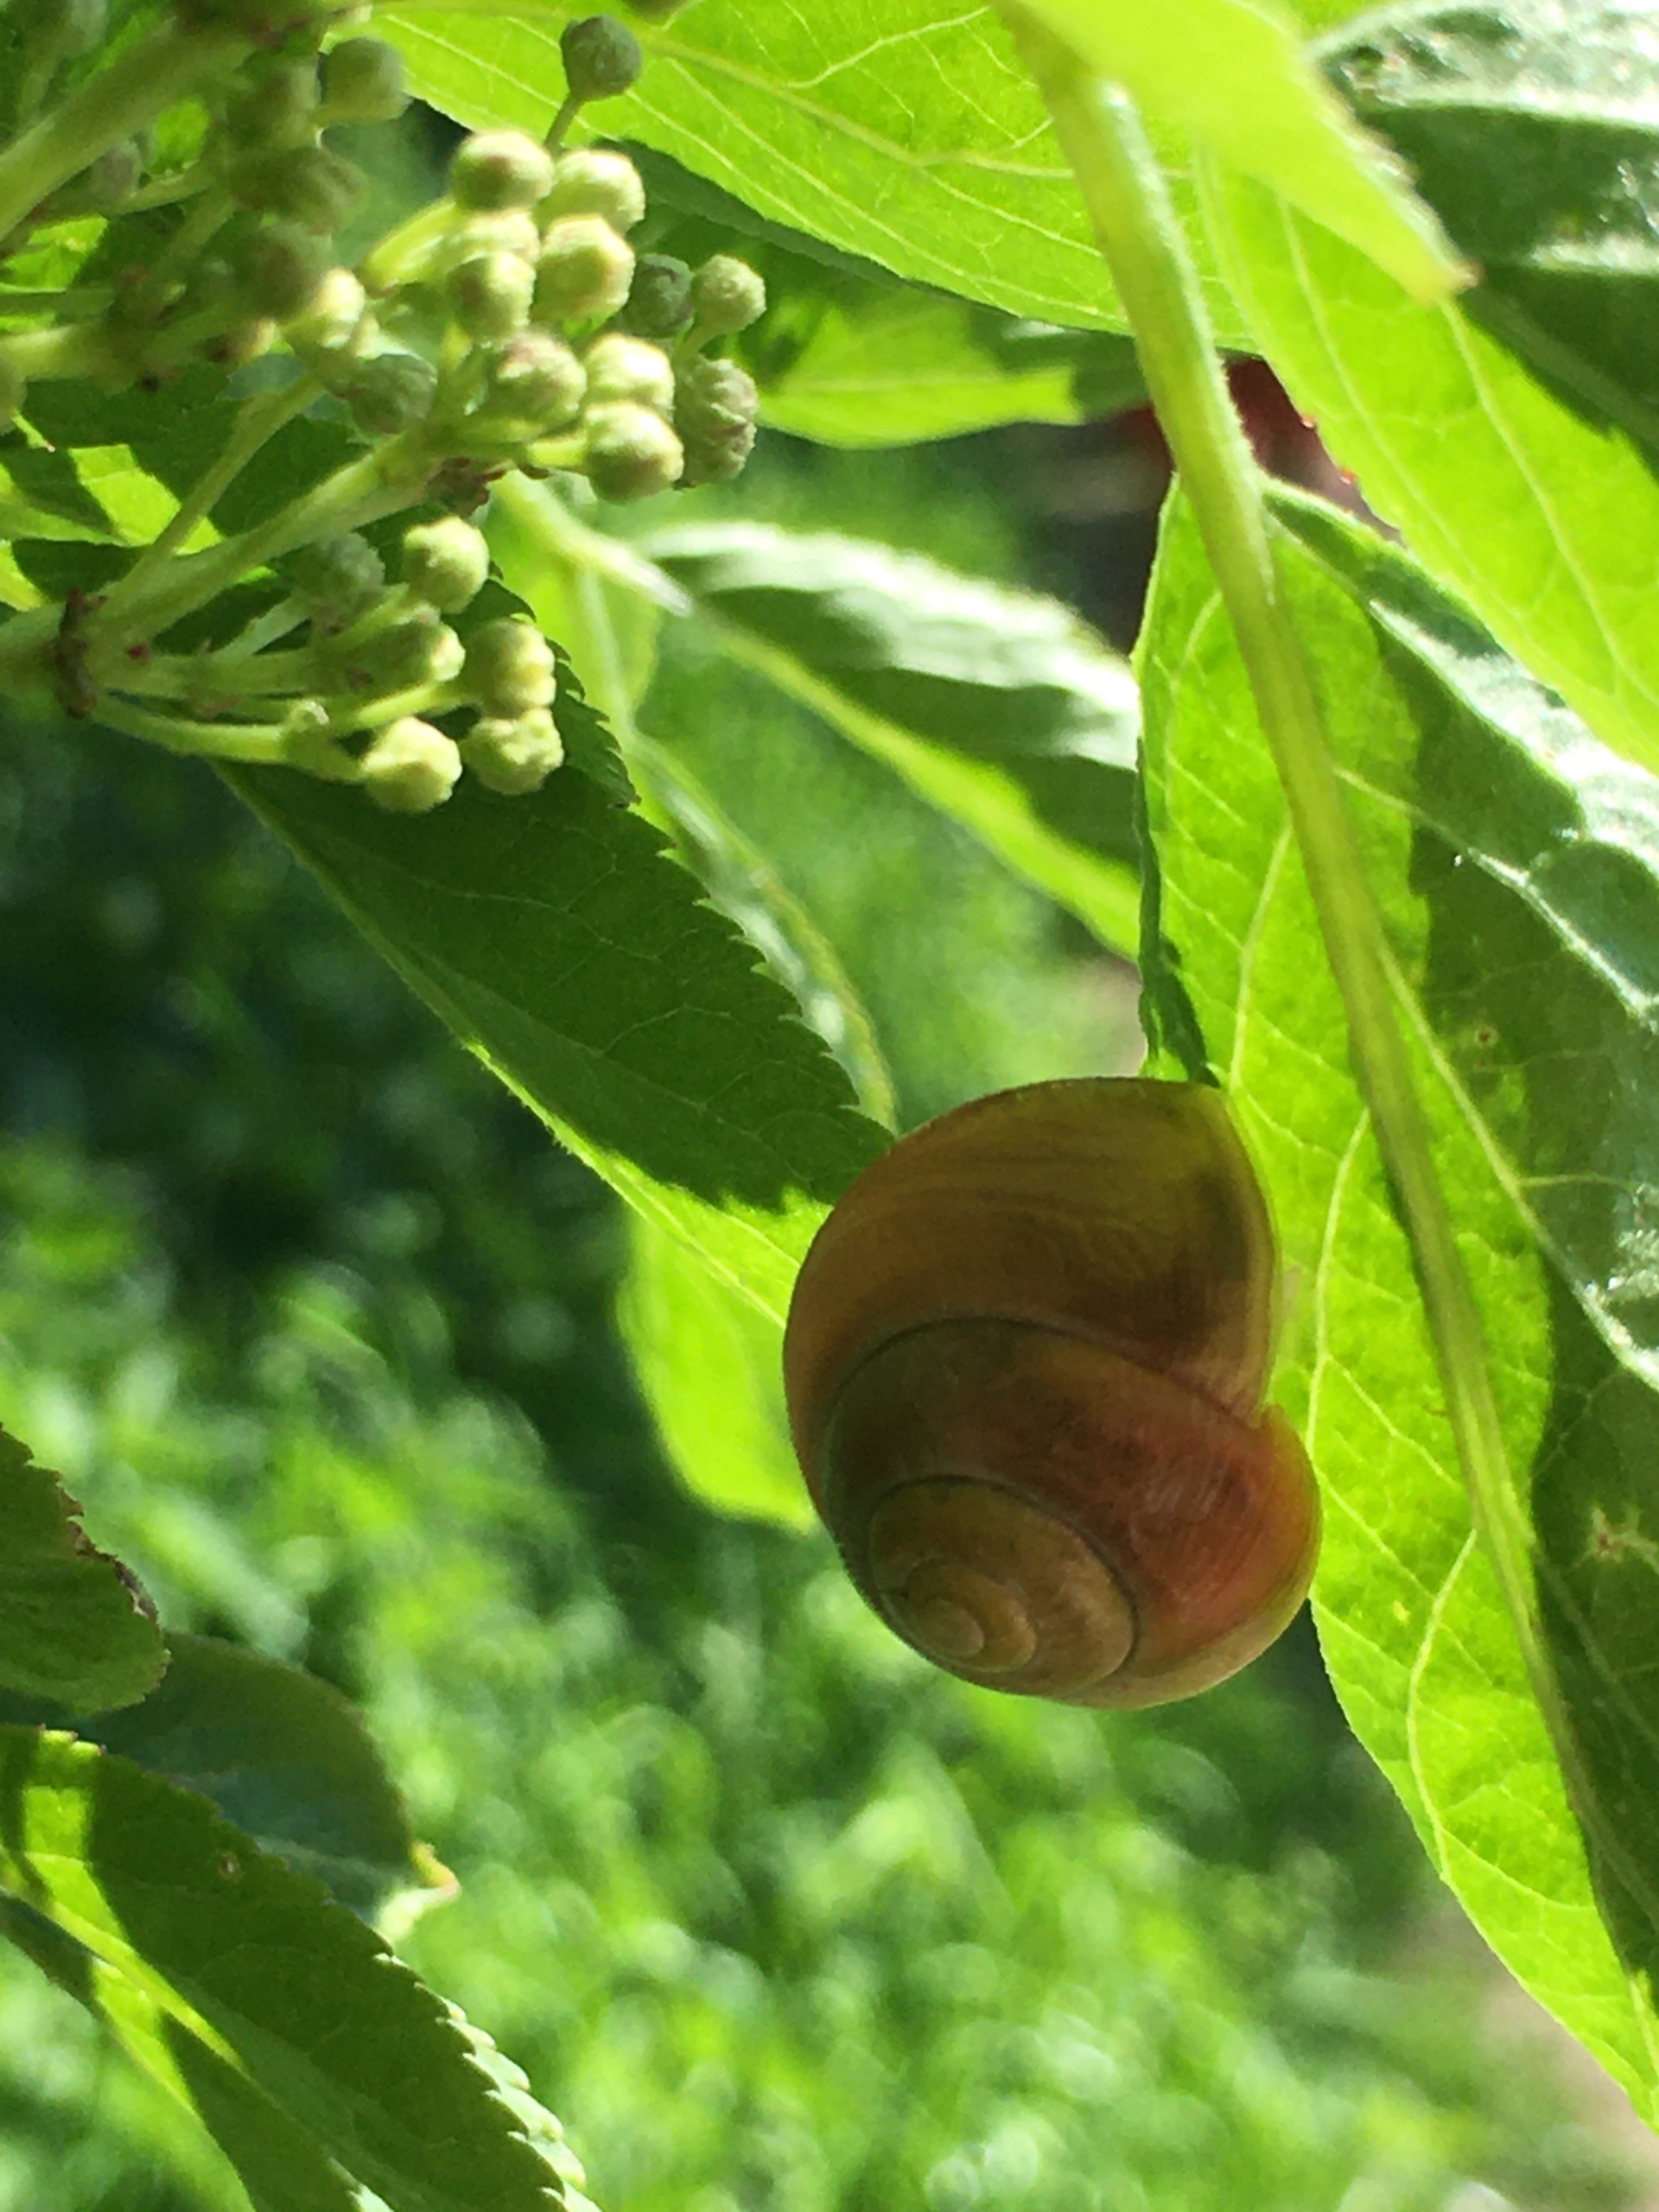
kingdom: Animalia
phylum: Mollusca
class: Gastropoda
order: Stylommatophora
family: Helicidae
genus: Cepaea
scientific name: Cepaea hortensis
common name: Havesnegl
